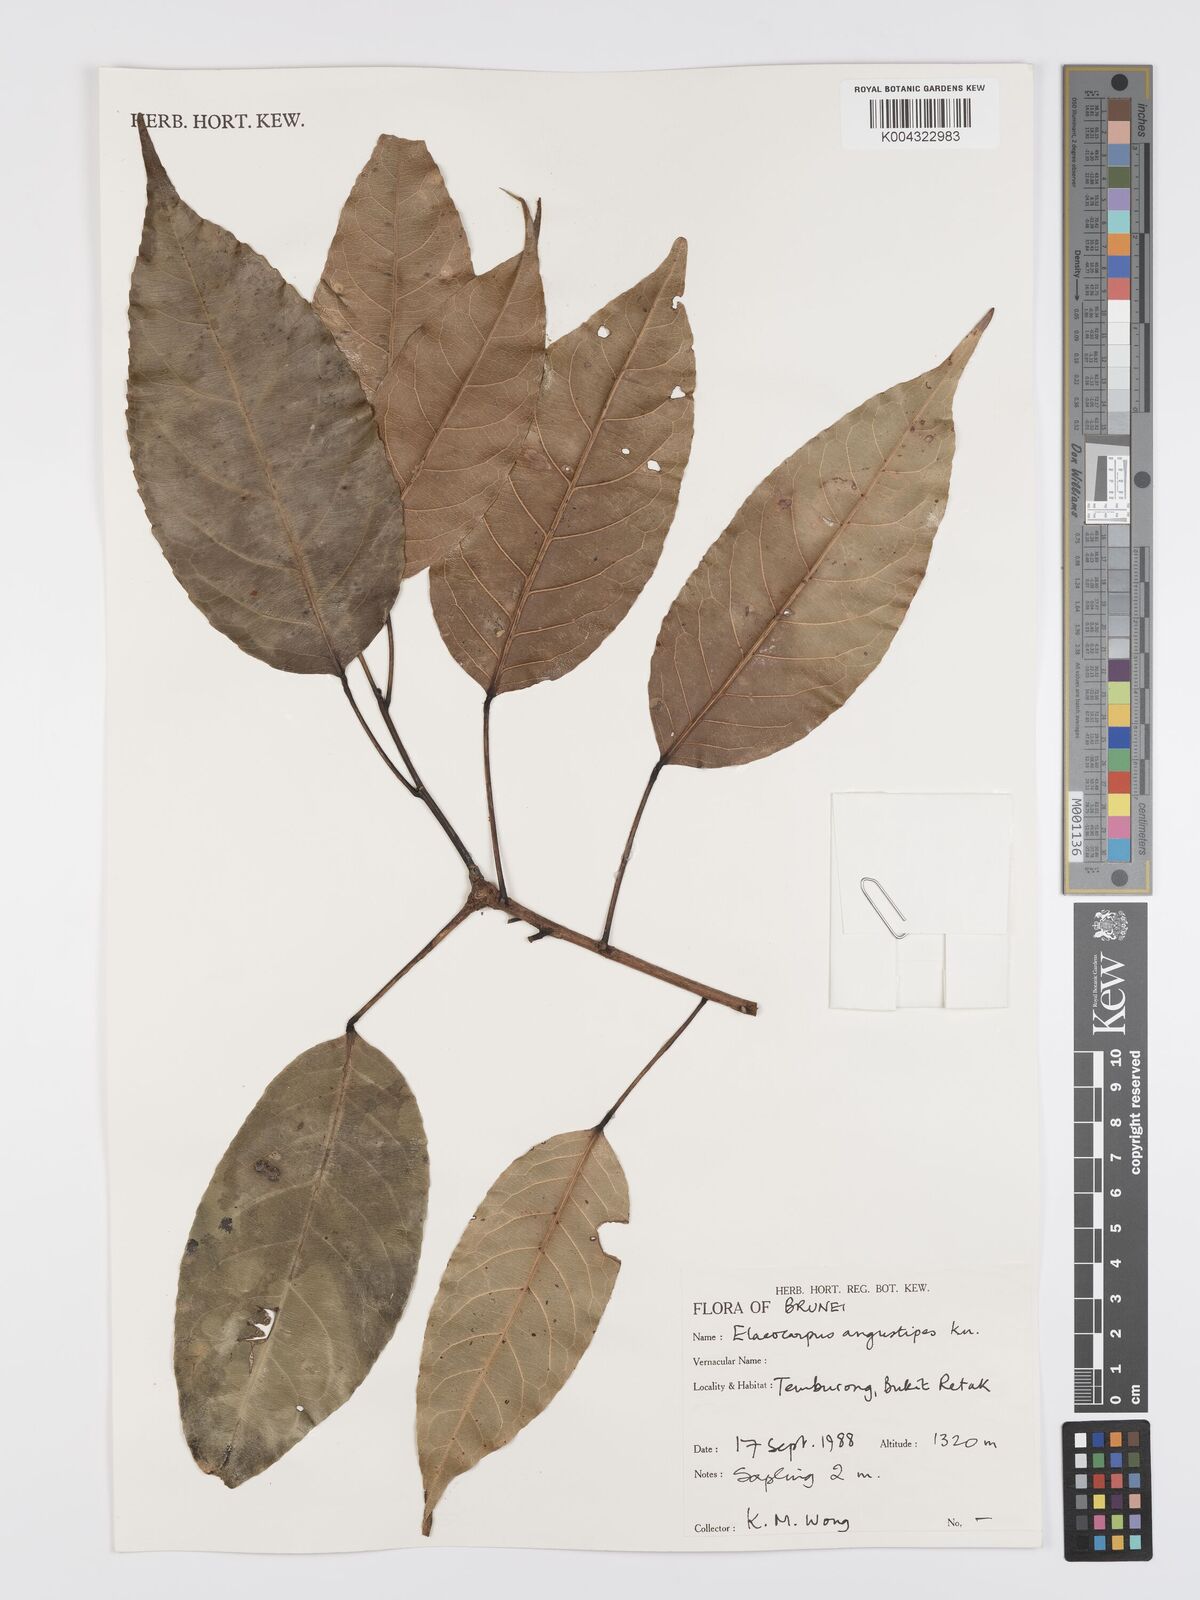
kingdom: Plantae
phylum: Tracheophyta
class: Magnoliopsida
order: Oxalidales
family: Elaeocarpaceae
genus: Elaeocarpus
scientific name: Elaeocarpus angustipes
